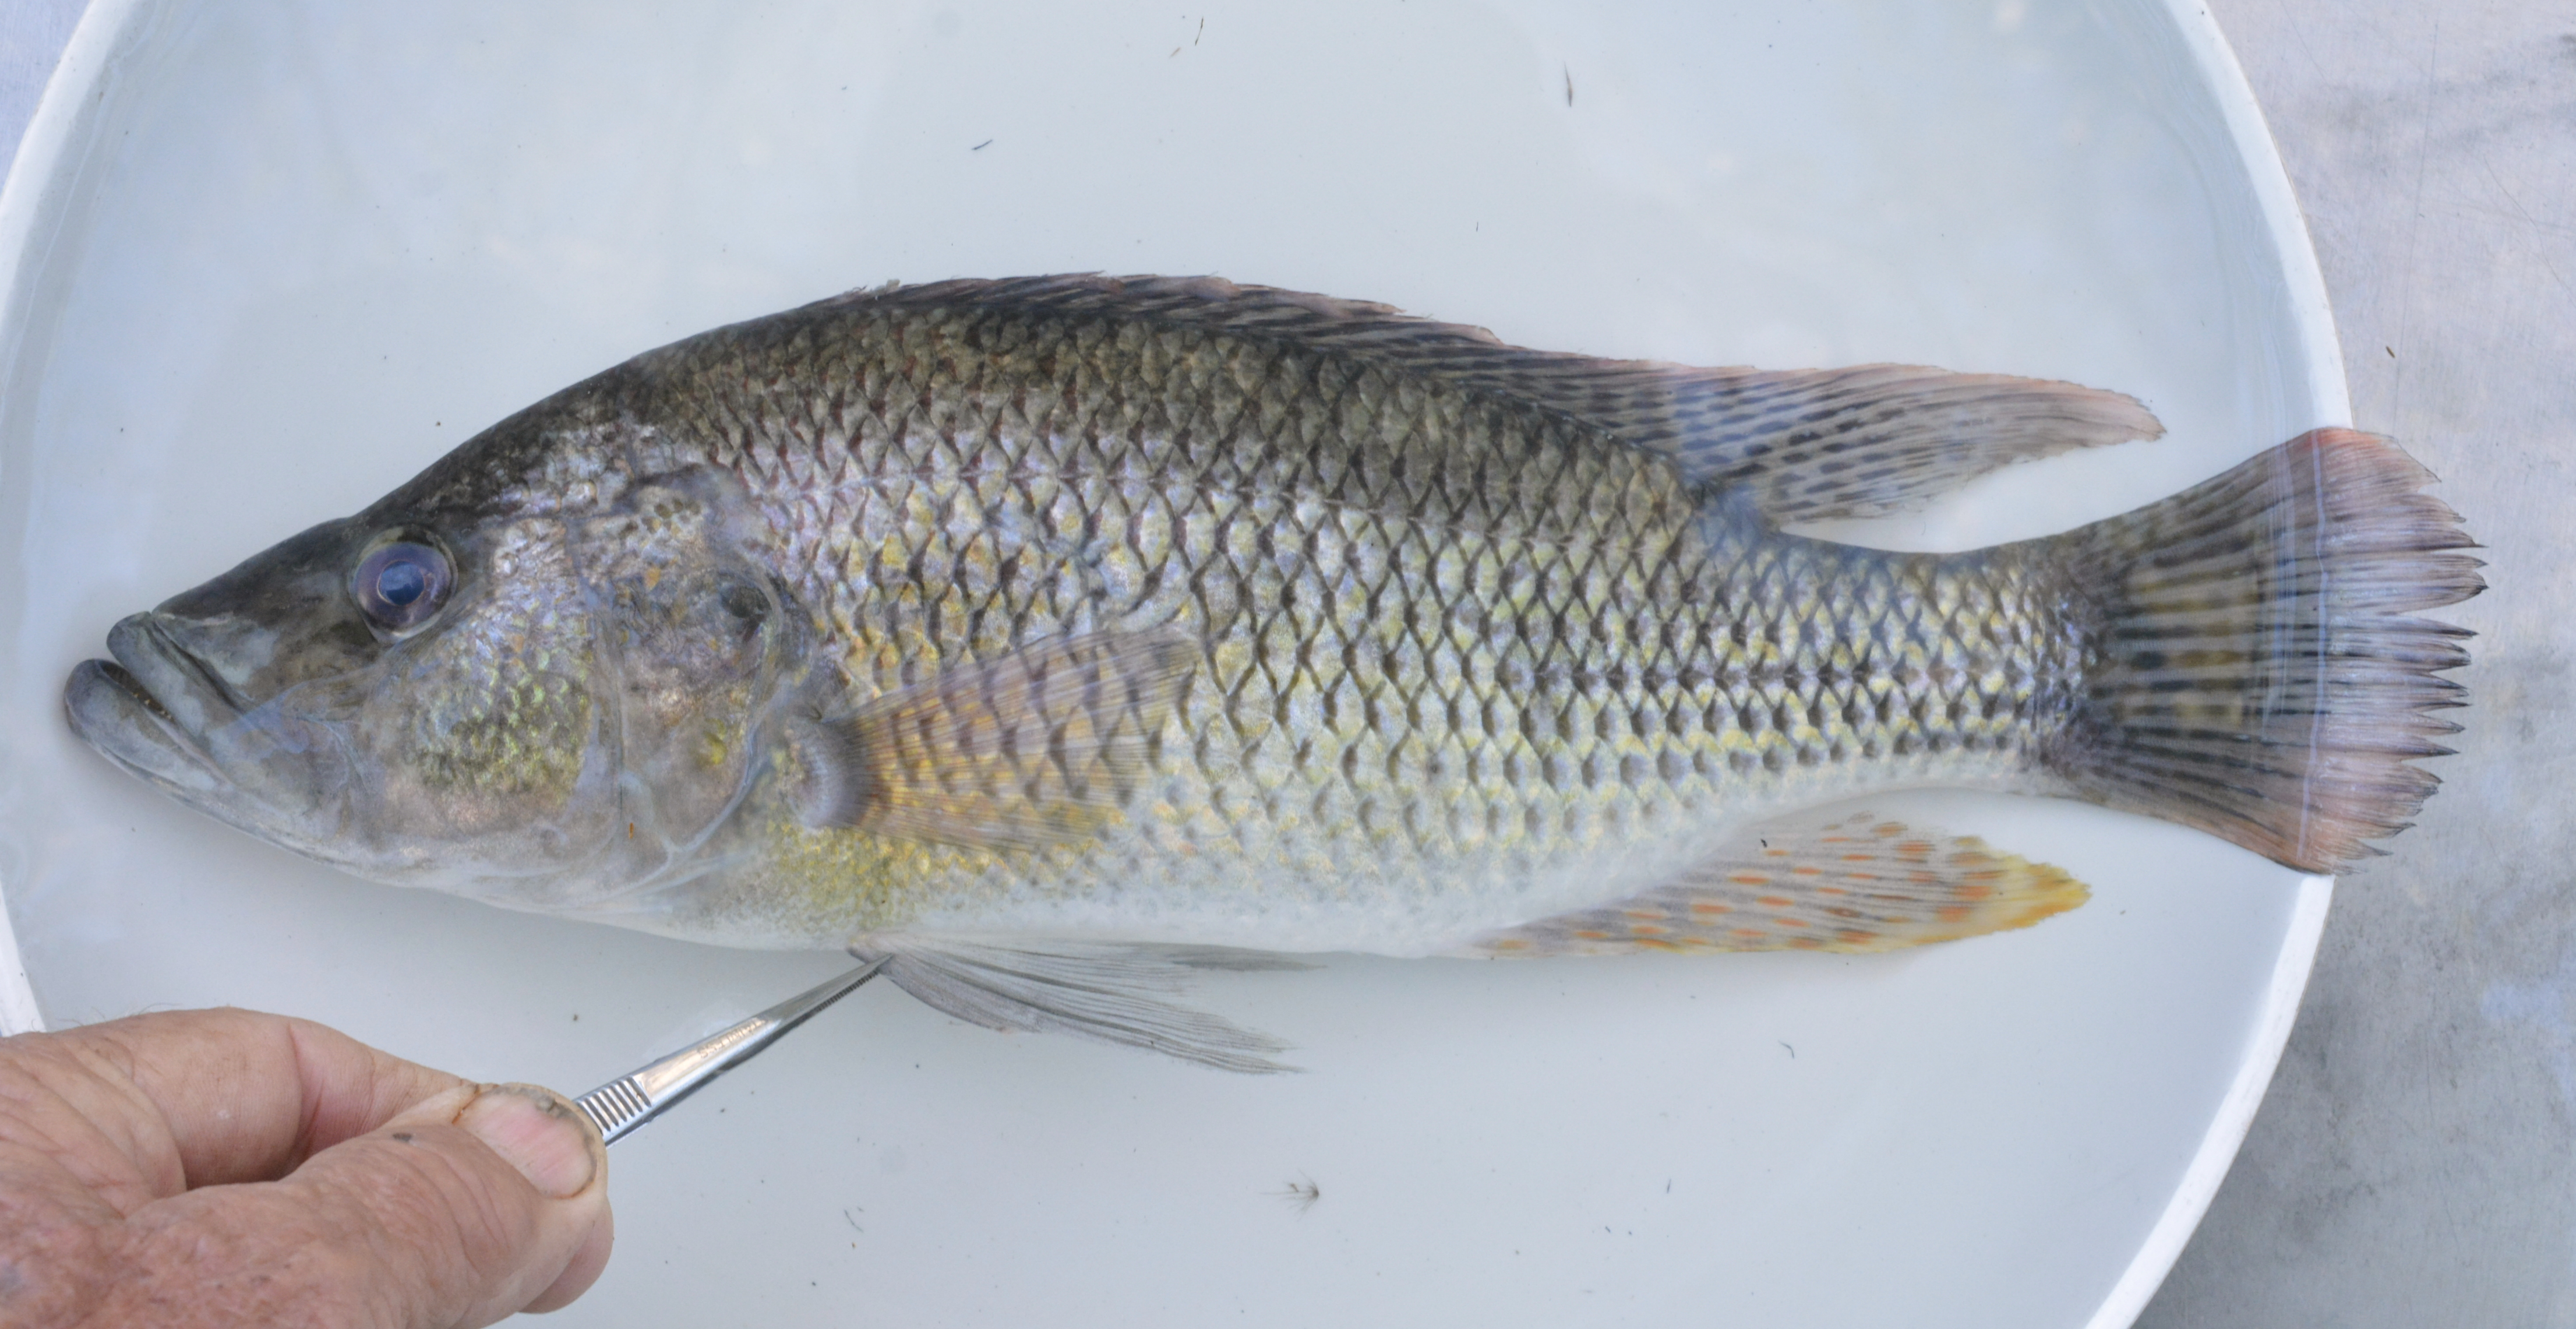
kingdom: Animalia
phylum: Chordata
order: Perciformes
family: Cichlidae
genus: Serranochromis
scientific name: Serranochromis macrocephalus
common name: Purpleface largemouth
